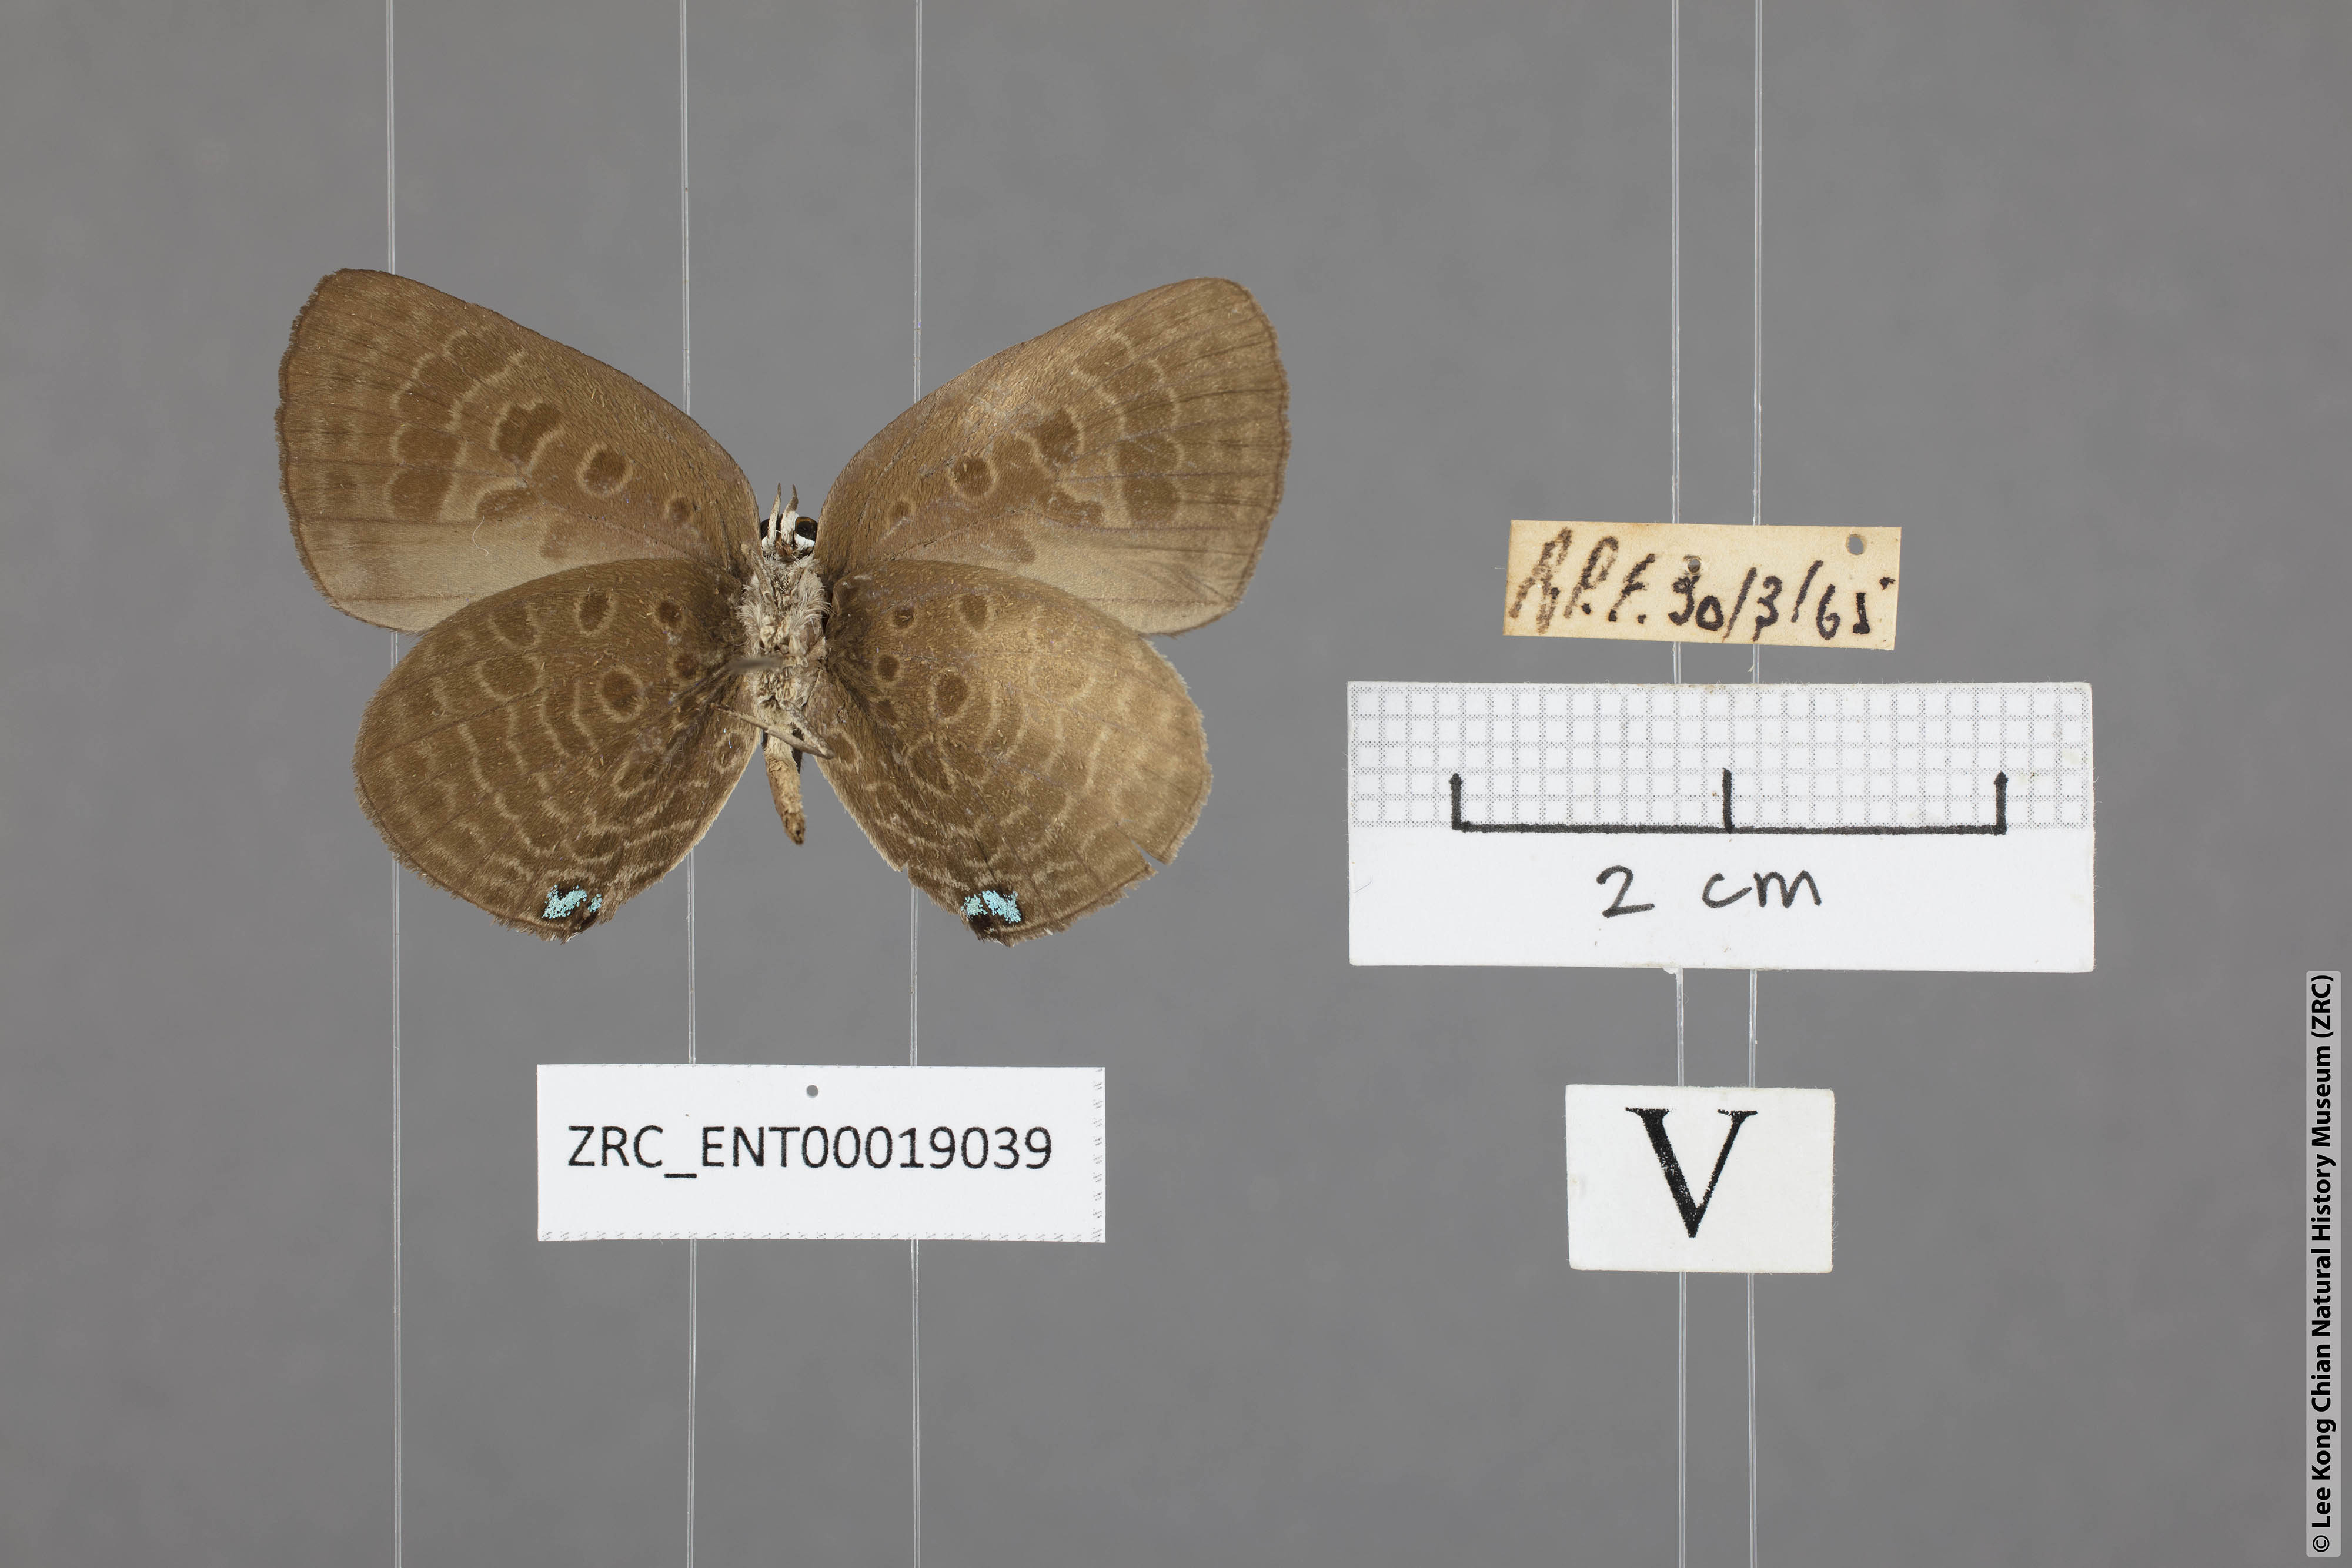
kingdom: Animalia
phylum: Arthropoda
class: Insecta
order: Lepidoptera
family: Lycaenidae
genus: Arhopala
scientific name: Arhopala agesilaus
